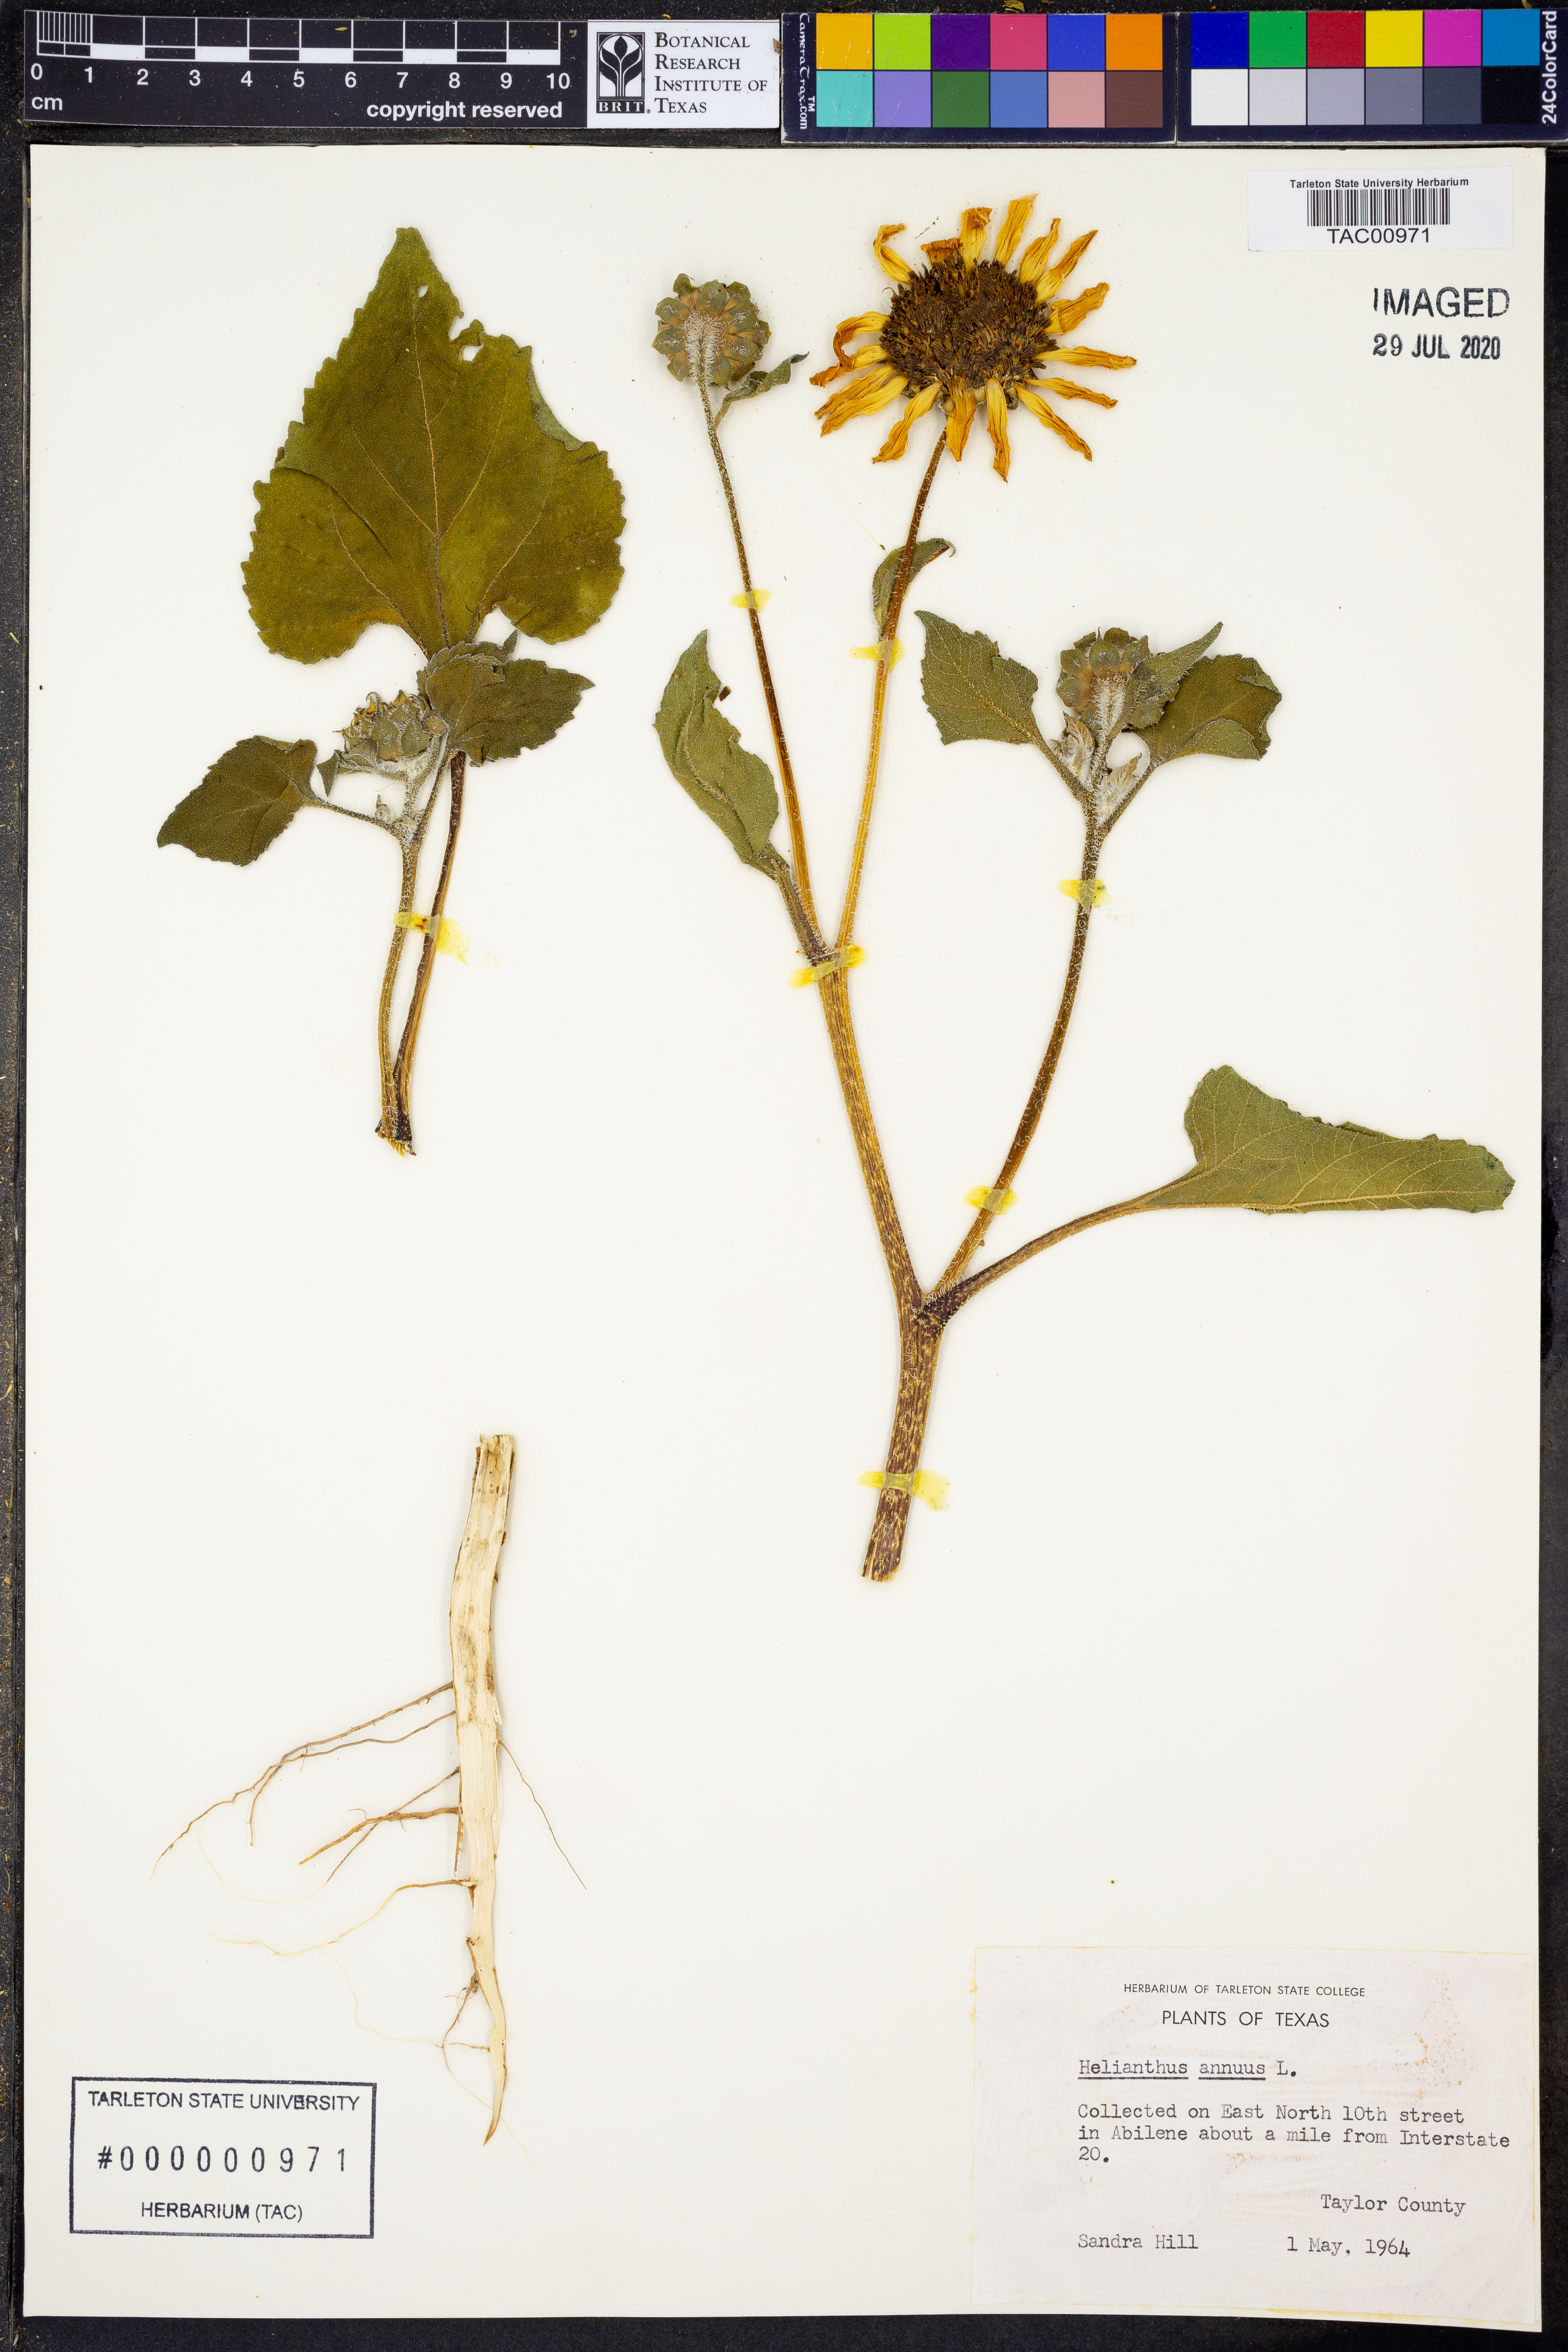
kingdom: Plantae
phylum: Tracheophyta
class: Magnoliopsida
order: Asterales
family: Asteraceae
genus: Helianthus
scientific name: Helianthus annuus
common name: Sunflower
